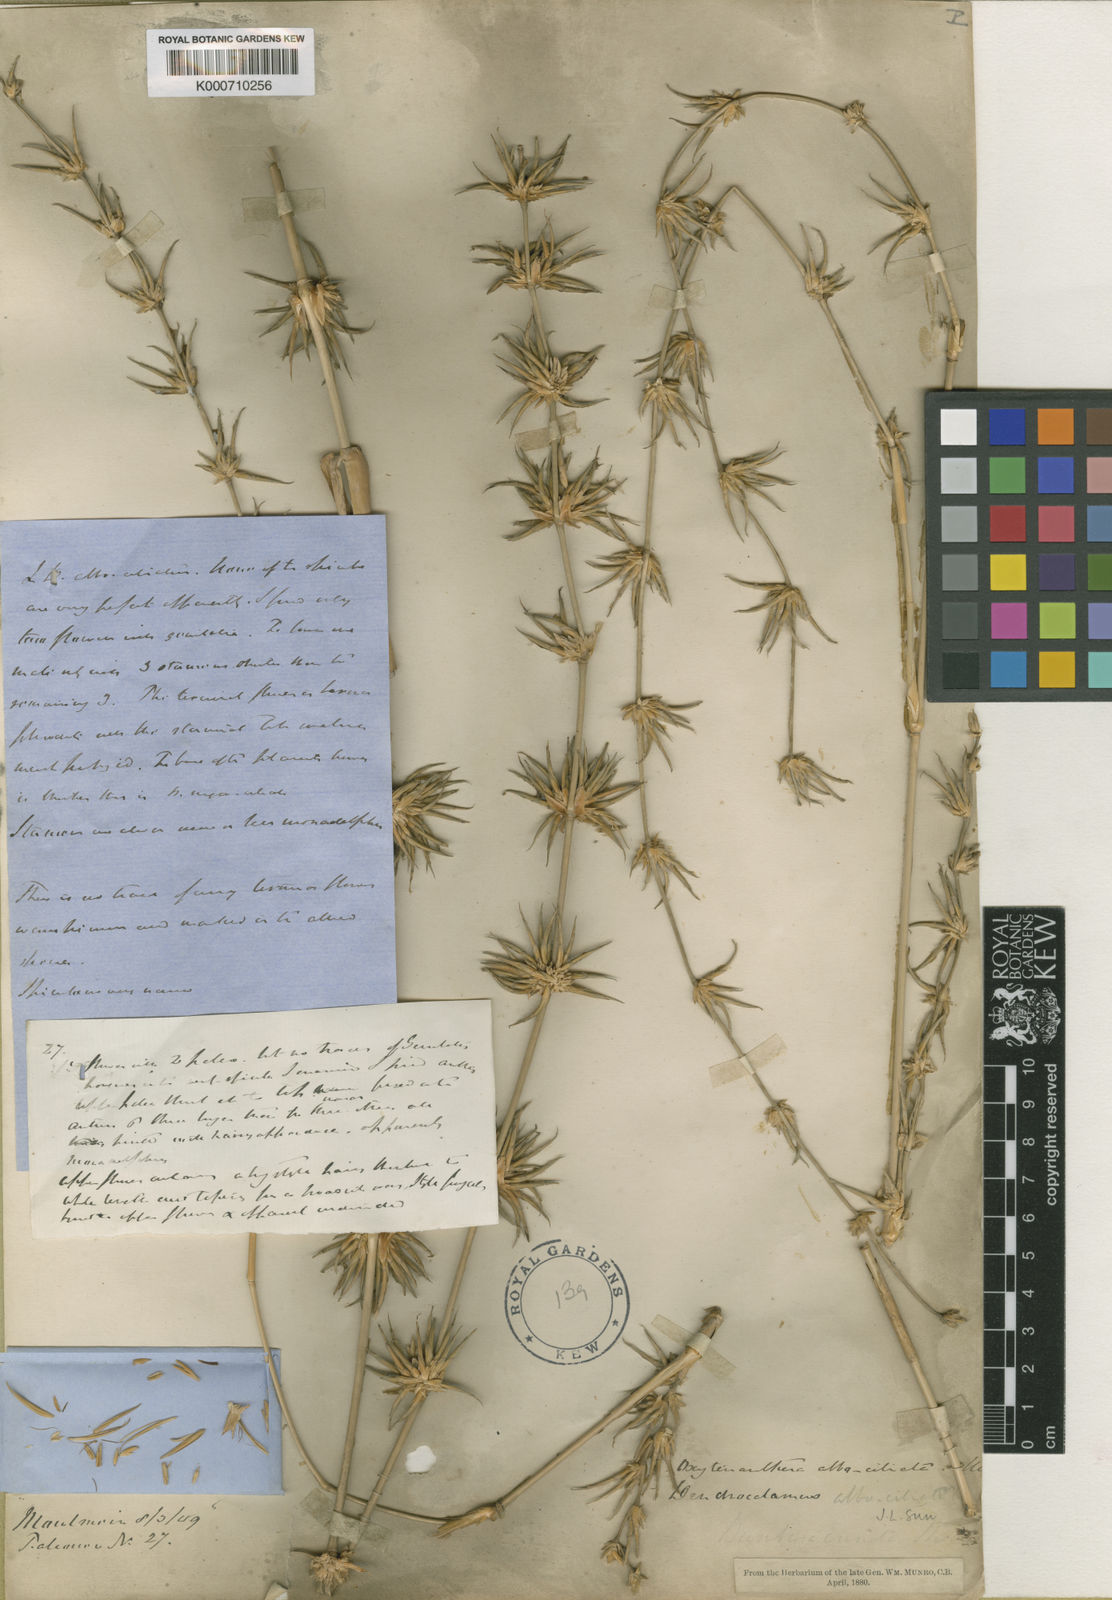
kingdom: Plantae
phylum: Tracheophyta
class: Liliopsida
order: Poales
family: Poaceae
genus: Gigantochloa
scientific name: Gigantochloa albociliata
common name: White-fringe gigantochloa
